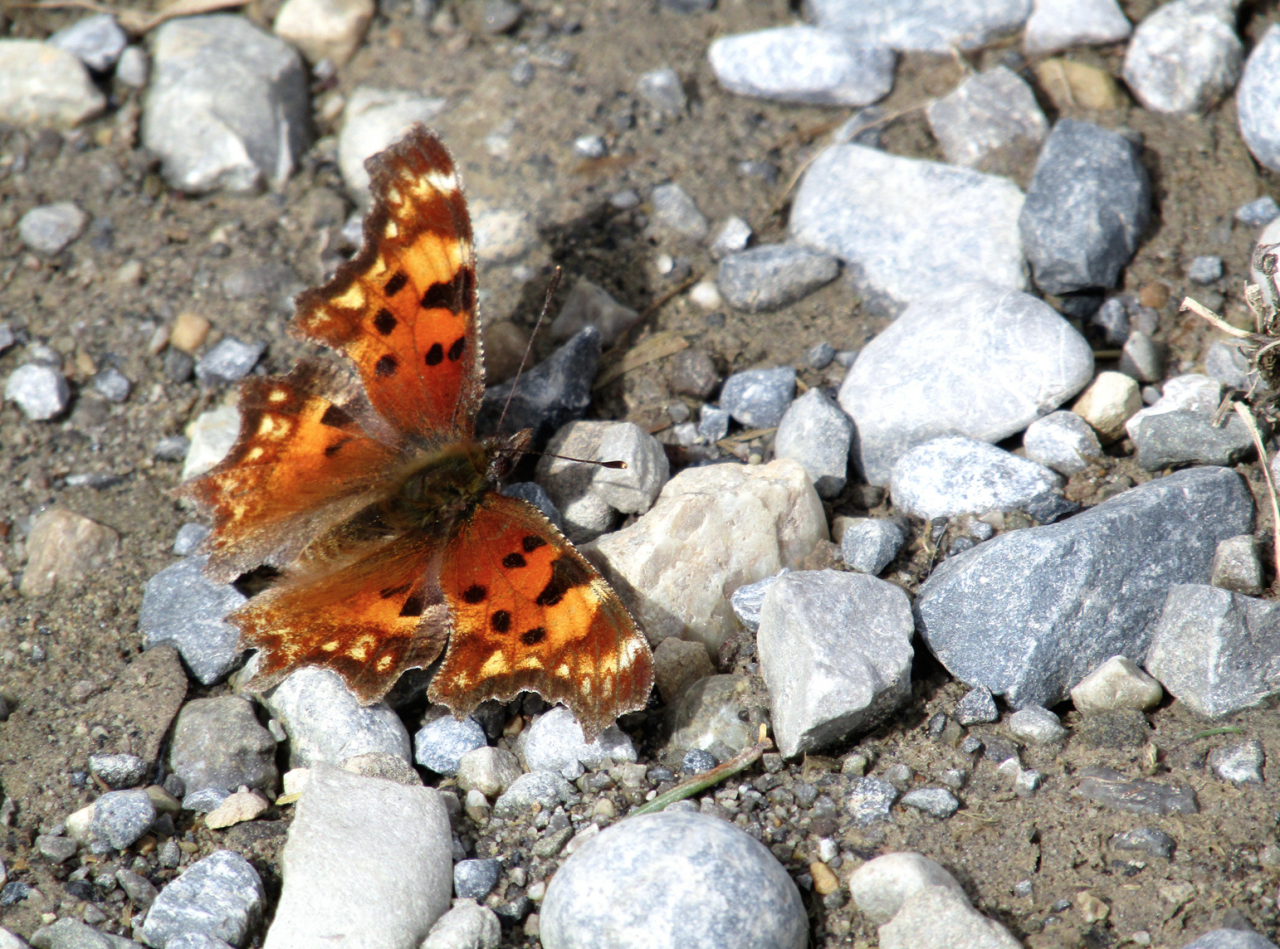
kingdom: Animalia
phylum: Arthropoda
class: Insecta
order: Lepidoptera
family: Nymphalidae
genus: Polygonia
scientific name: Polygonia gracilis
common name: Hoary Comma
